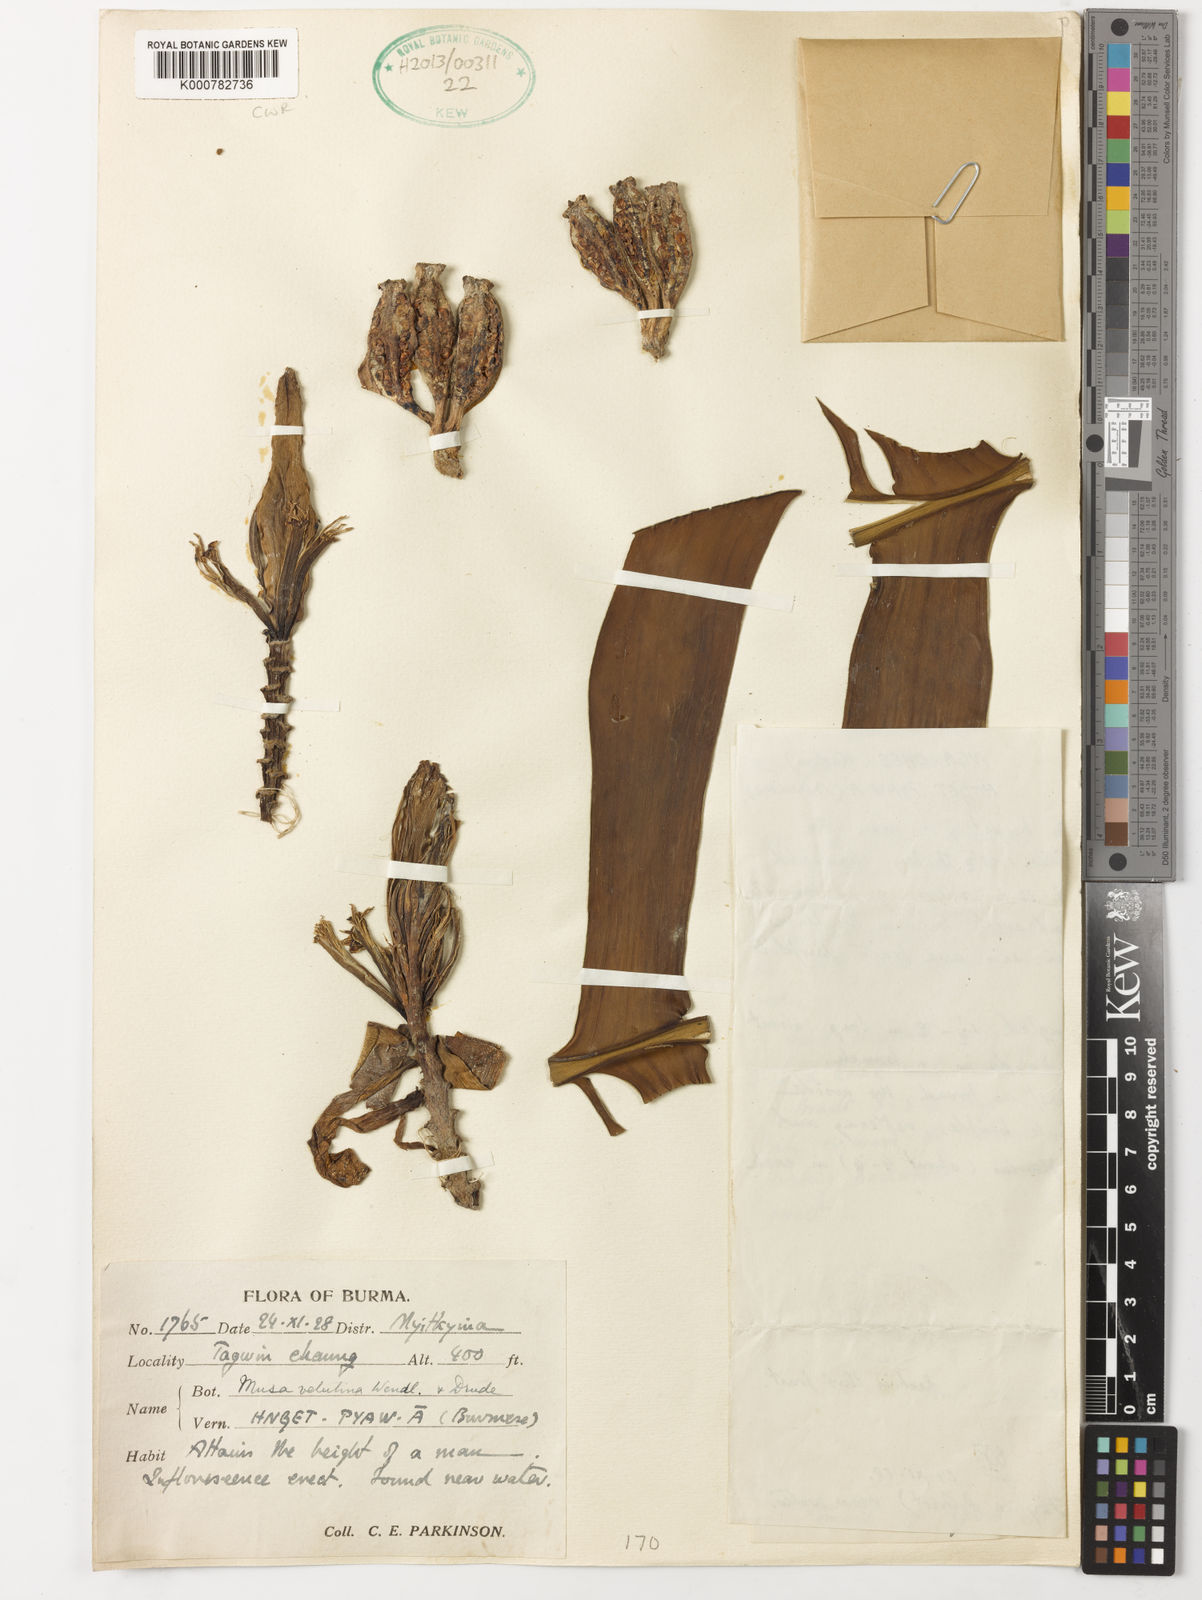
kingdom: Plantae
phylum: Tracheophyta
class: Liliopsida
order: Zingiberales
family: Musaceae
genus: Musa
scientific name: Musa velutina
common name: Pink velvet banana
